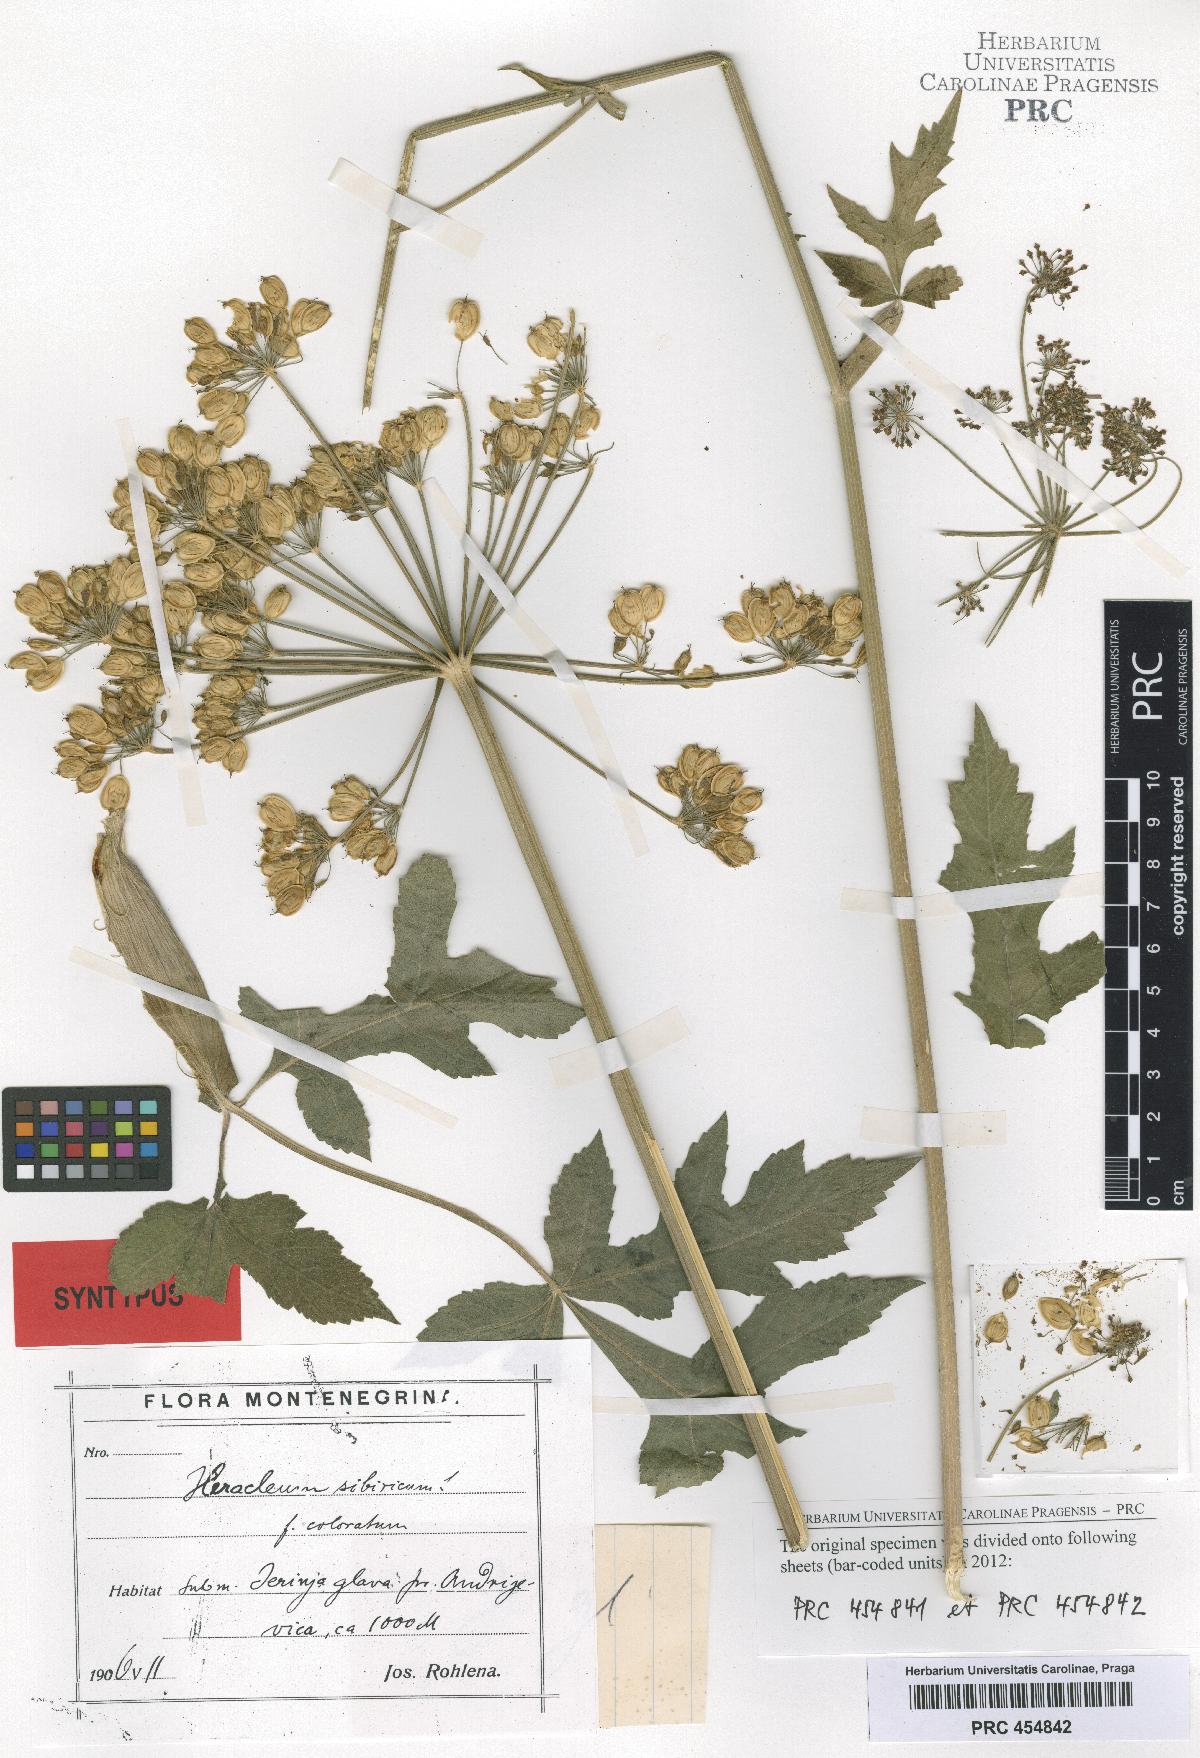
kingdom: Plantae
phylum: Tracheophyta
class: Magnoliopsida
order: Apiales
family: Apiaceae
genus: Heracleum
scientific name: Heracleum sphondylium
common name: Hogweed
